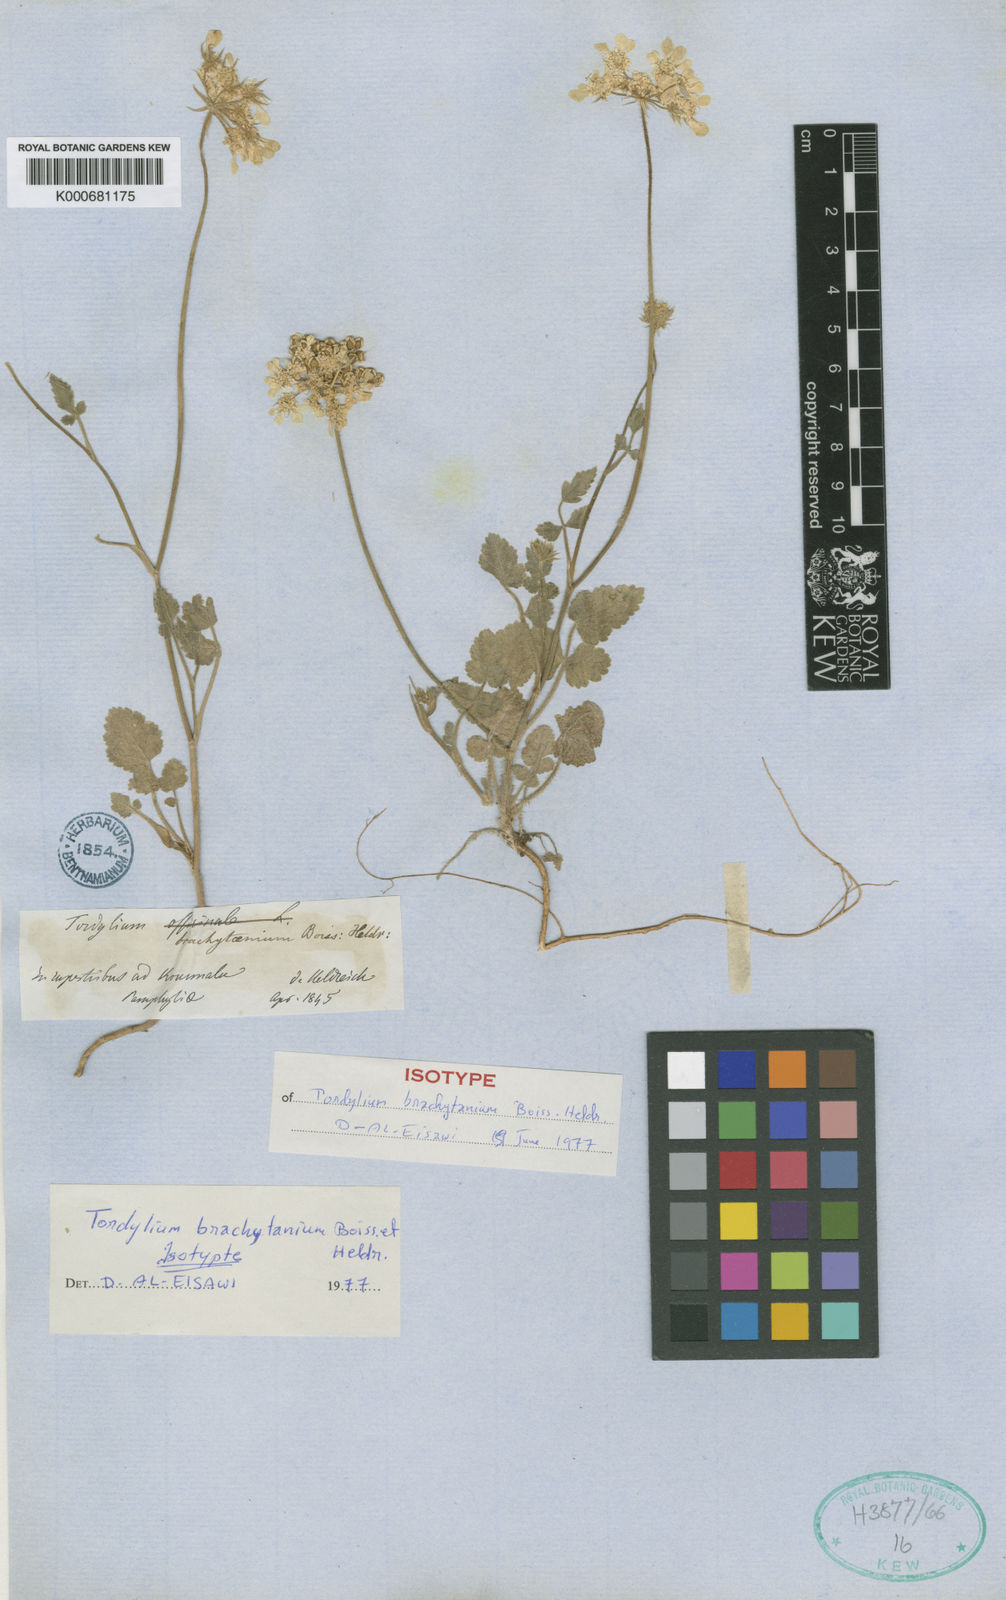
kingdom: Plantae
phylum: Tracheophyta
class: Magnoliopsida
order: Apiales
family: Apiaceae
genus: Tordylium
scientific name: Tordylium brachytaenium
